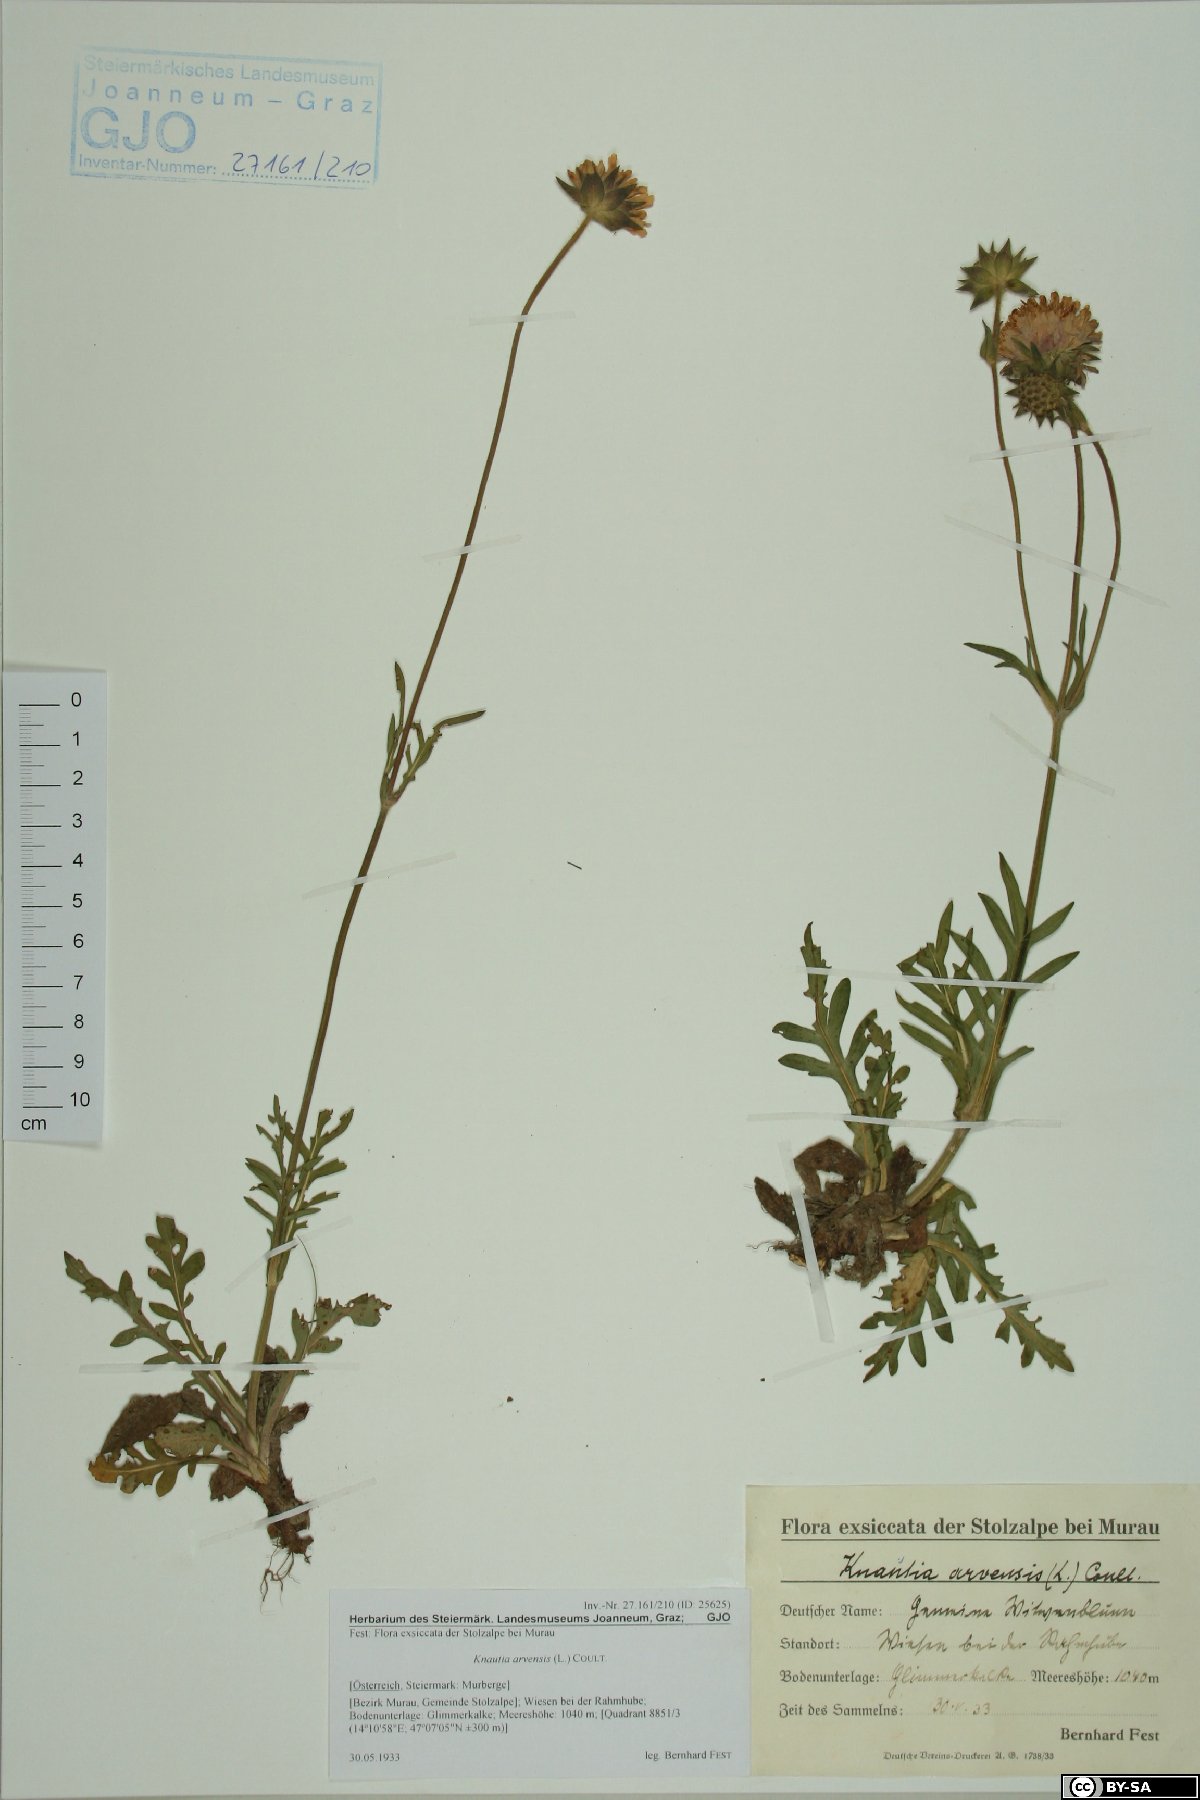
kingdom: Plantae
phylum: Tracheophyta
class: Magnoliopsida
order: Dipsacales
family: Caprifoliaceae
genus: Knautia
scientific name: Knautia arvensis
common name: Field scabiosa
